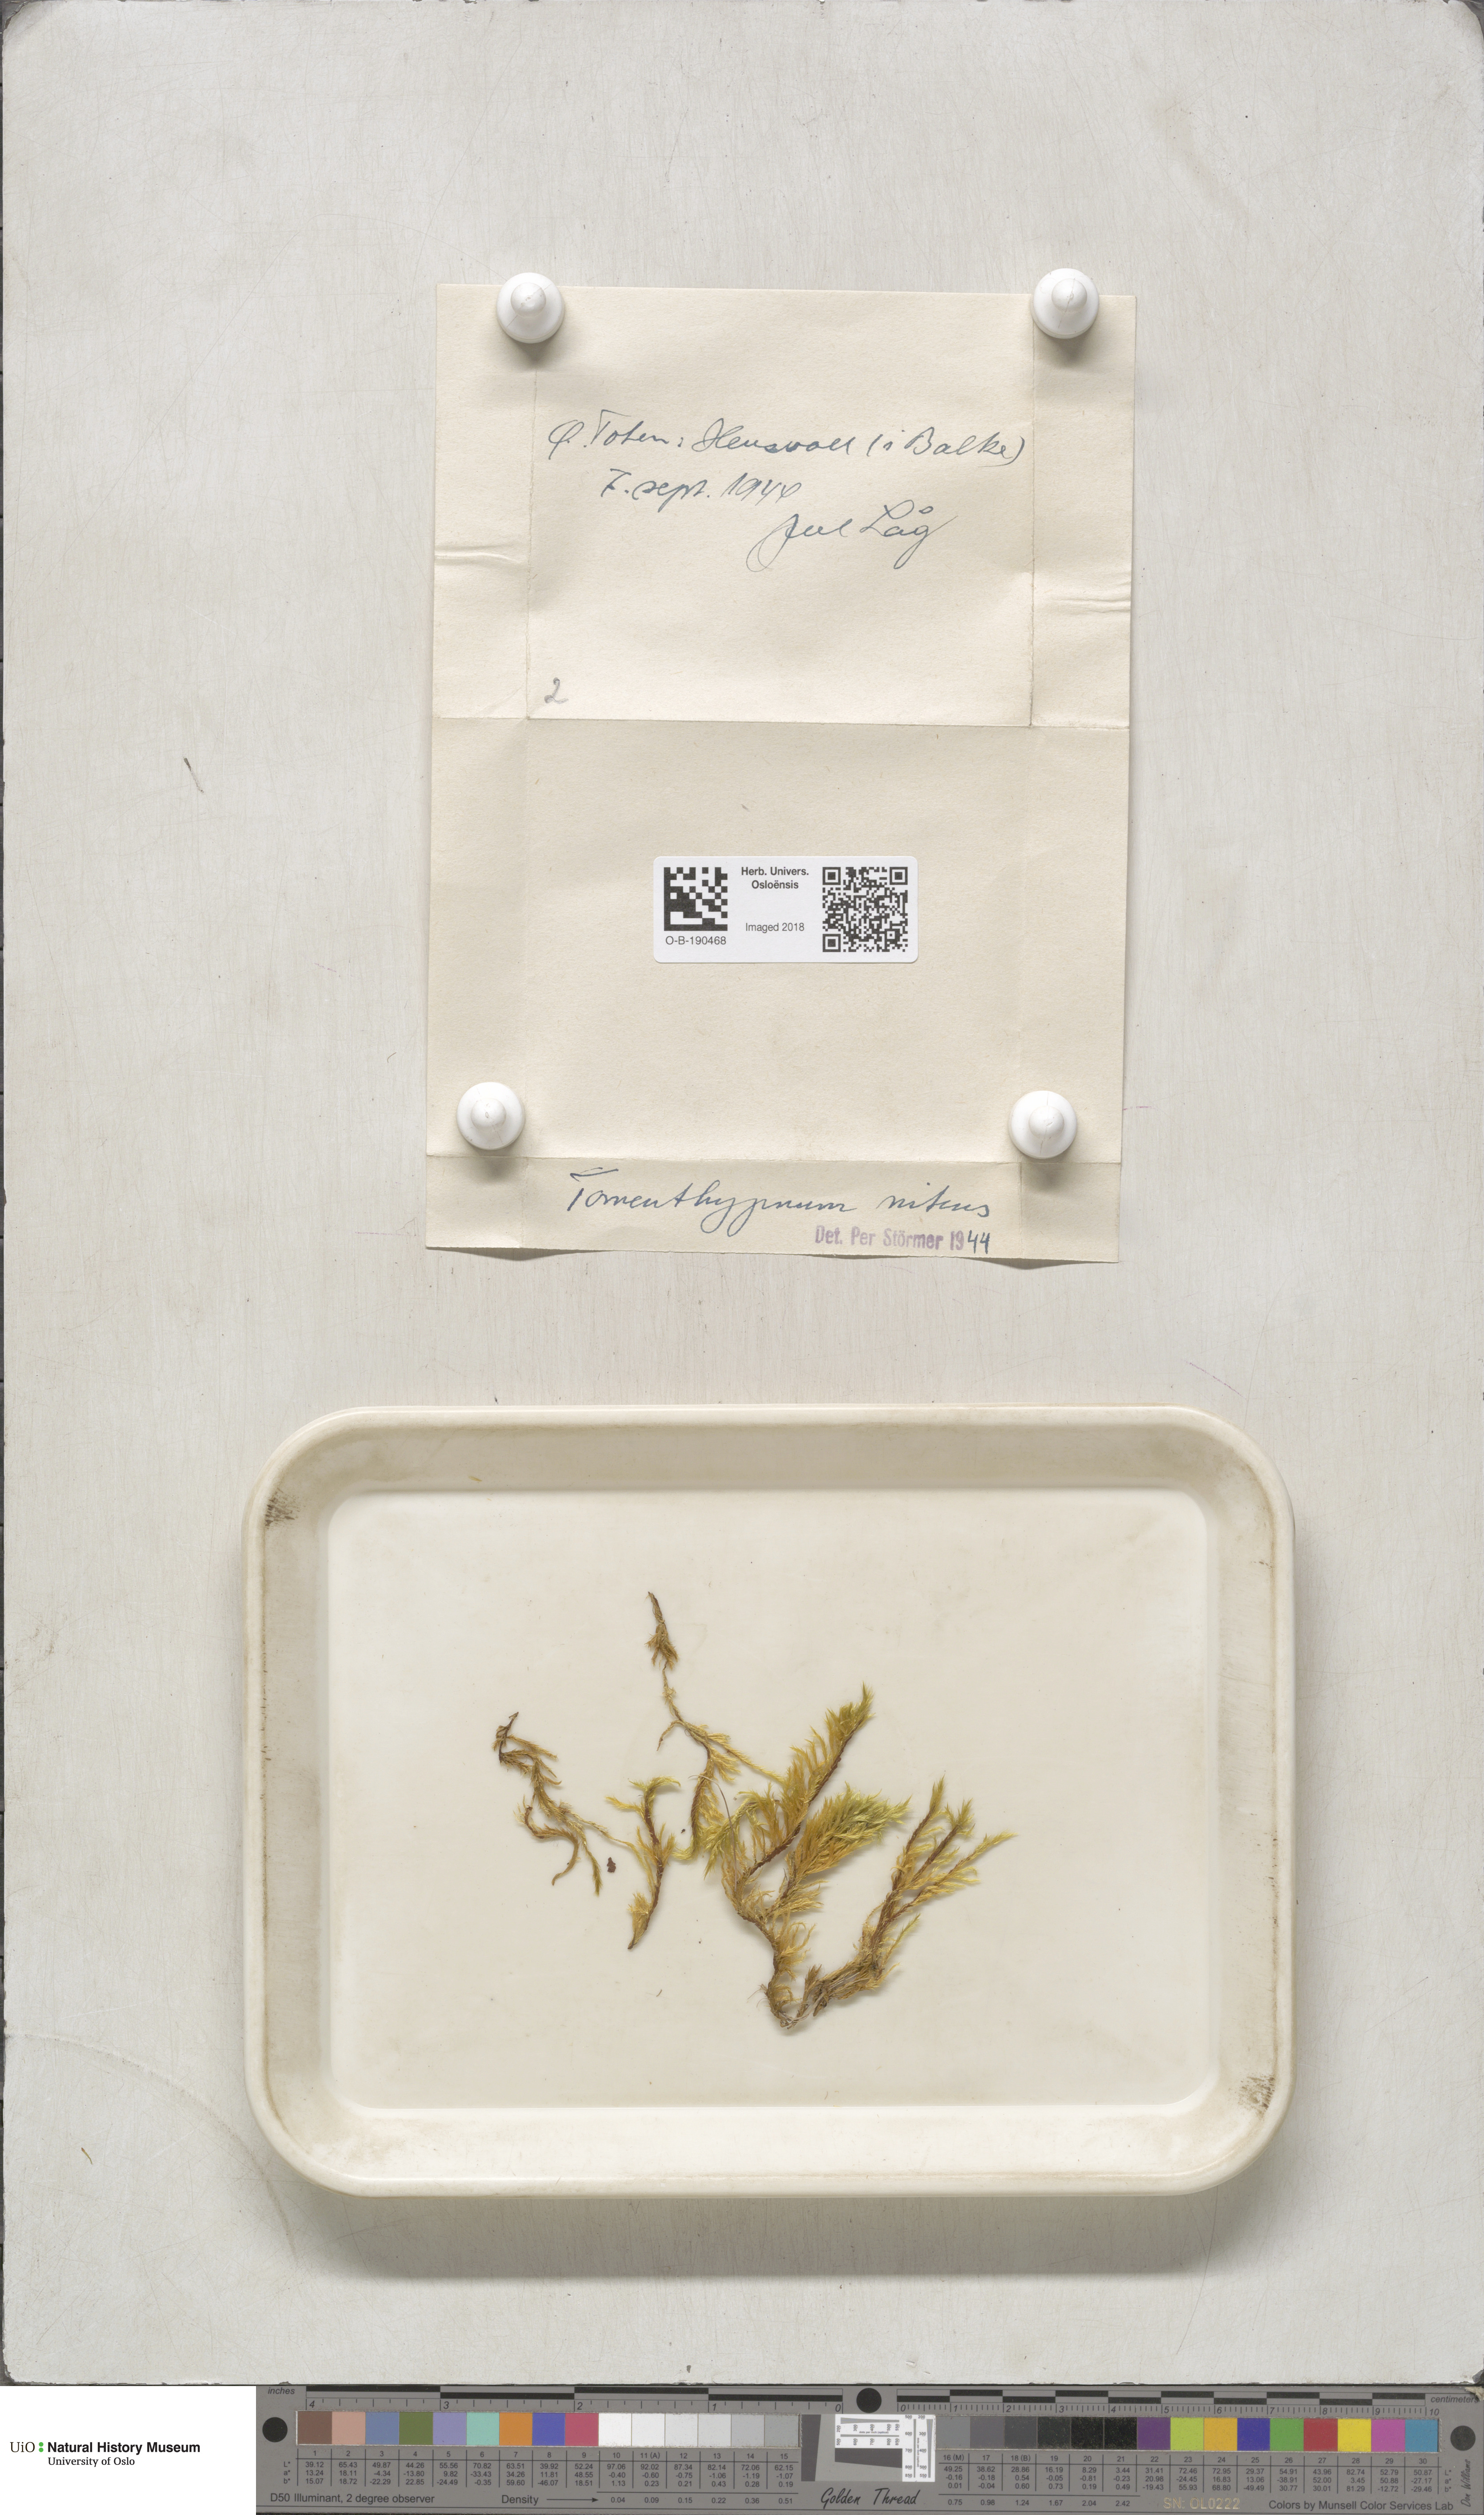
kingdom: Plantae
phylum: Bryophyta
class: Bryopsida
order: Hypnales
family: Amblystegiaceae
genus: Tomentypnum
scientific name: Tomentypnum nitens
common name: Golden fuzzy fen moss
